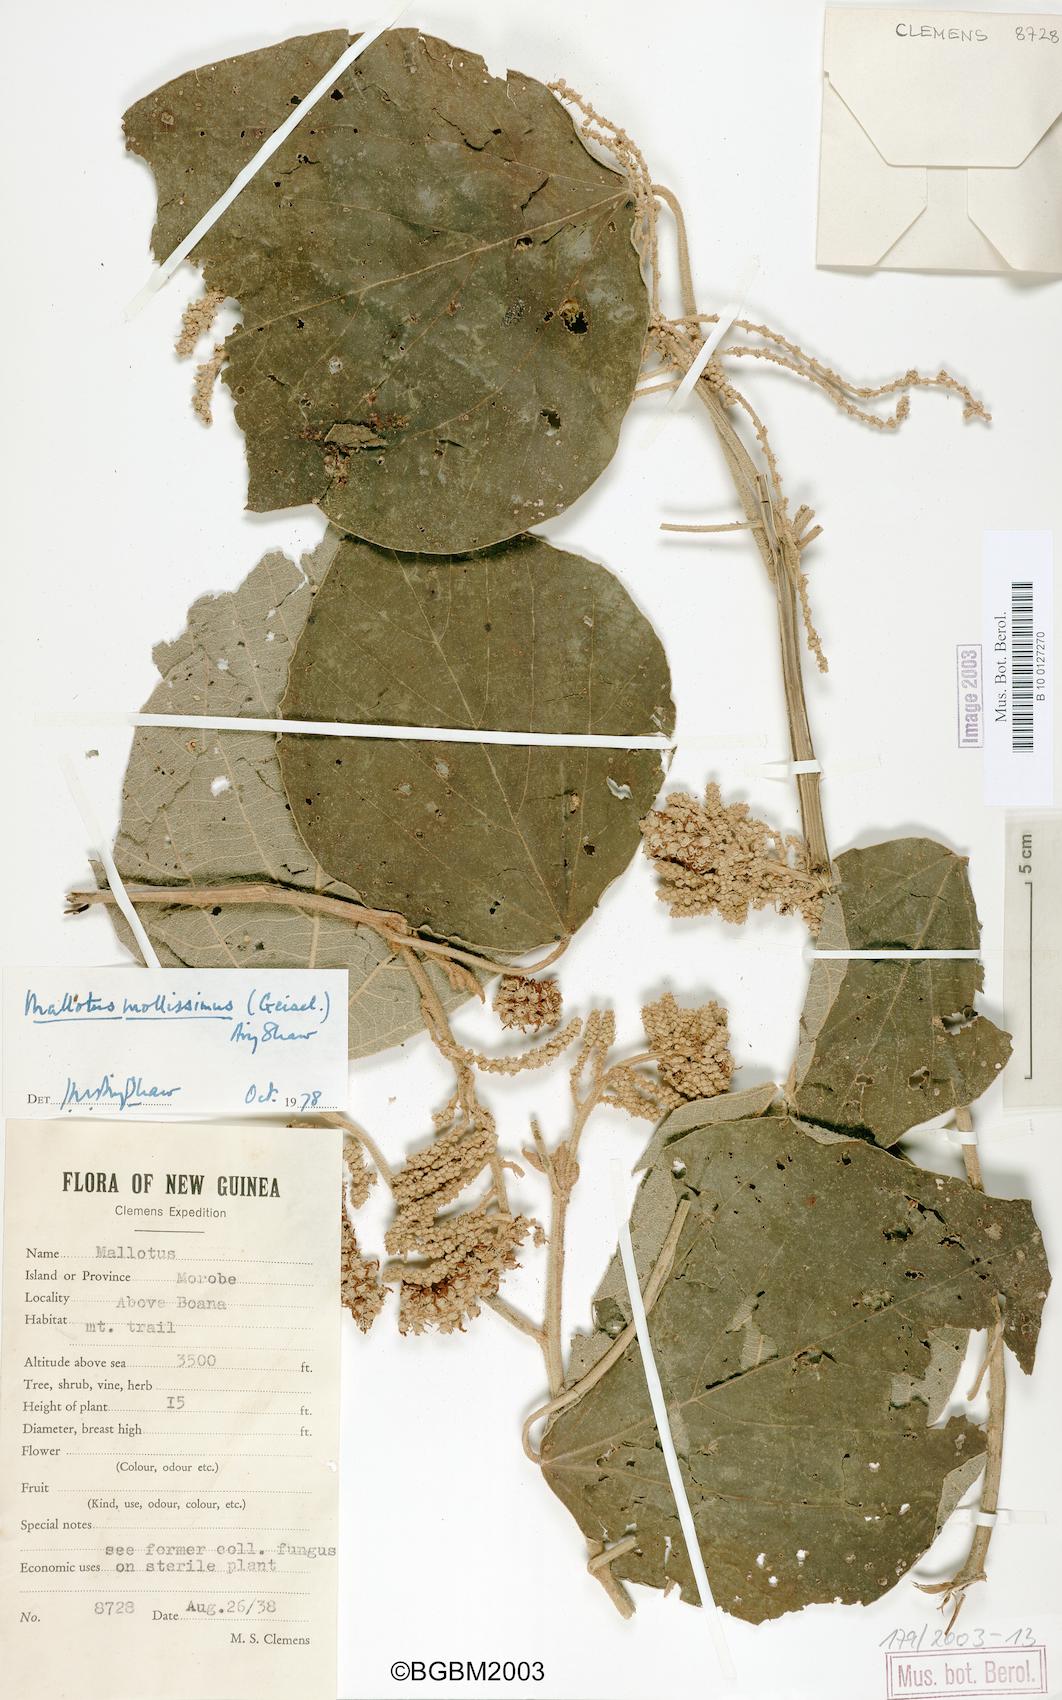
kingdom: Plantae
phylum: Tracheophyta
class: Magnoliopsida
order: Malpighiales
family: Euphorbiaceae
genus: Mallotus
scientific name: Mallotus mollissimus
